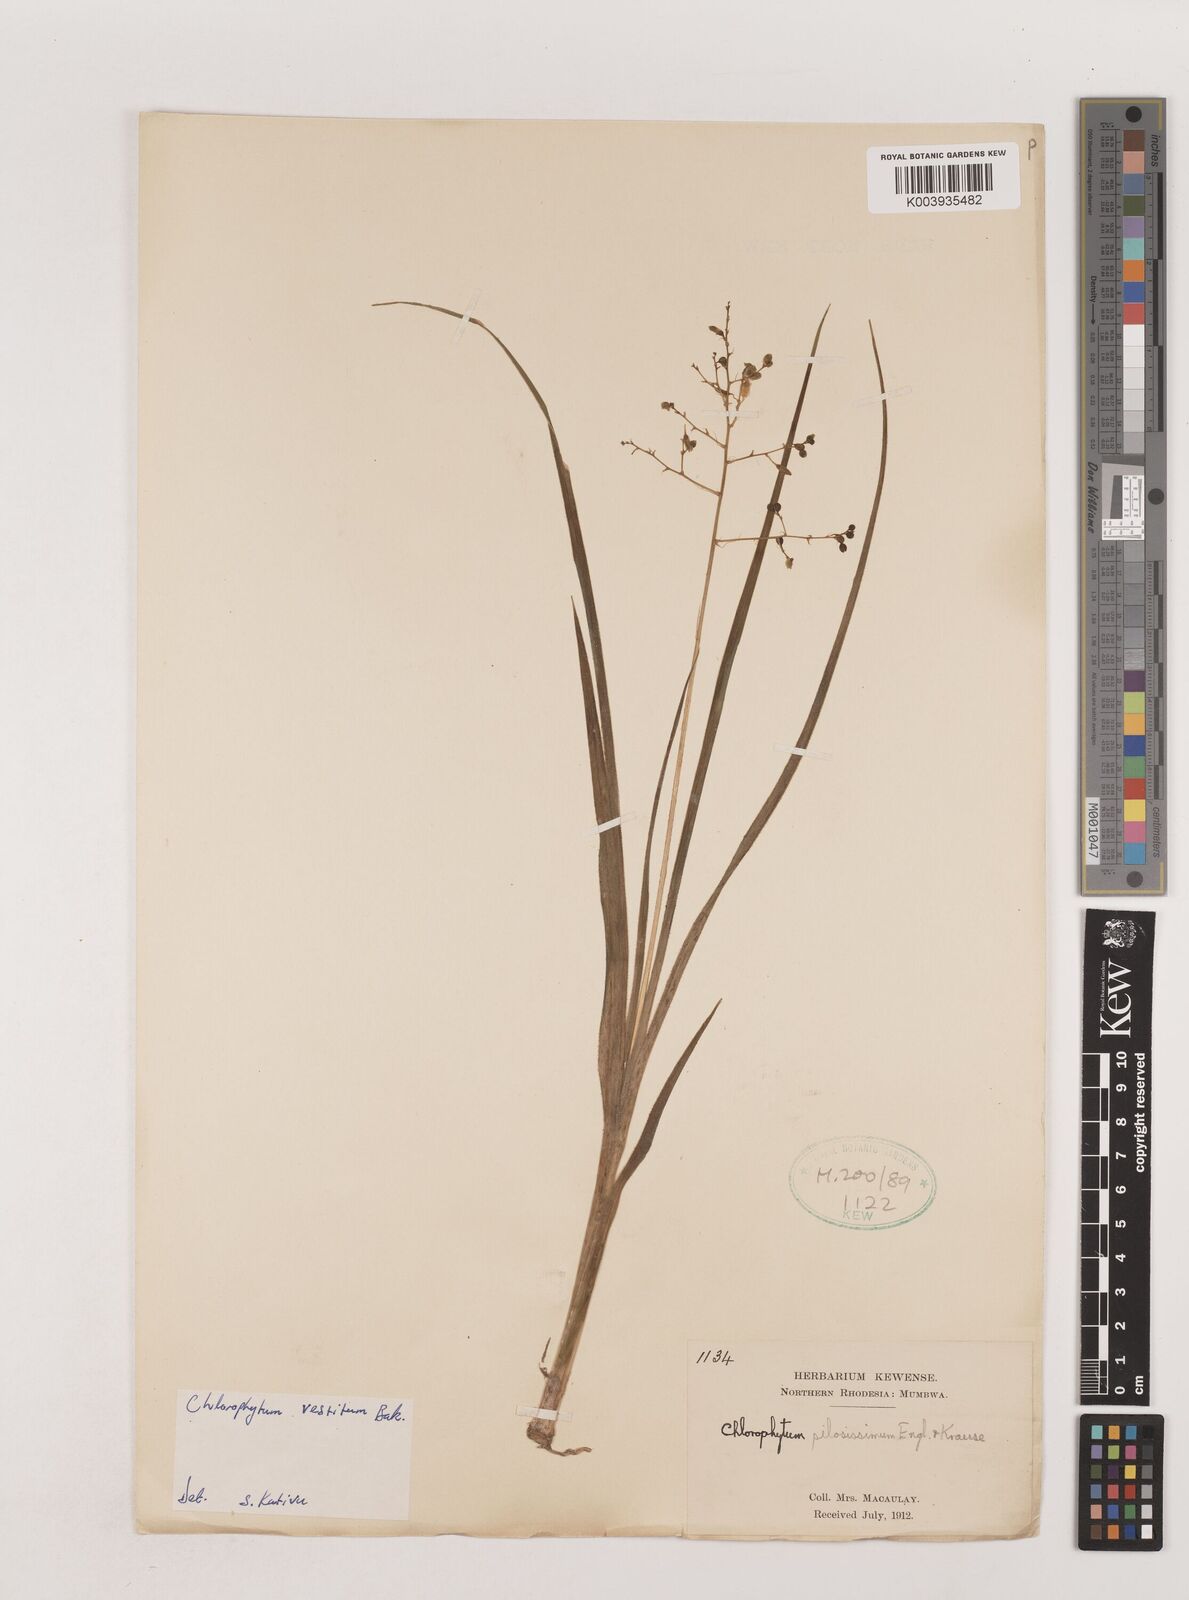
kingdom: Plantae
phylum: Tracheophyta
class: Liliopsida
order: Asparagales
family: Asparagaceae
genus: Chlorophytum
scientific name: Chlorophytum vestitum
